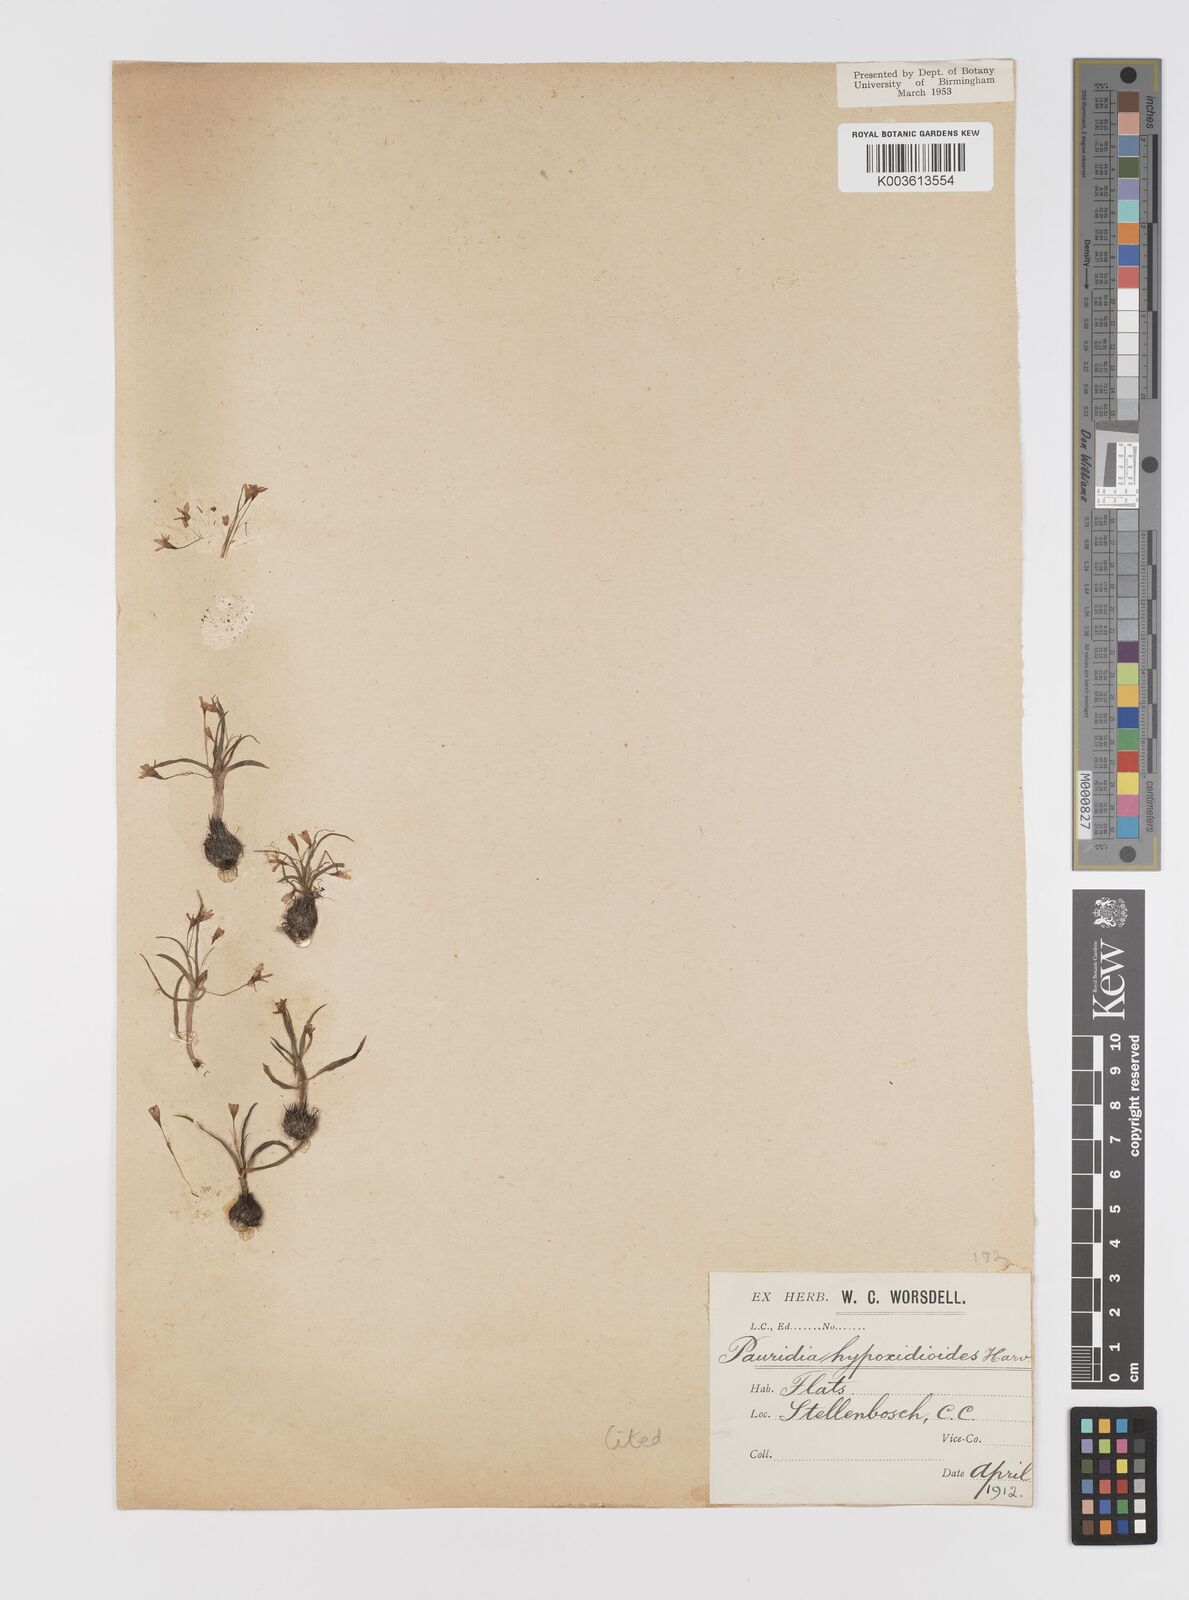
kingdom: Plantae
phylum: Tracheophyta
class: Liliopsida
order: Asparagales
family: Hypoxidaceae
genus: Pauridia
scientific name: Pauridia minuta
